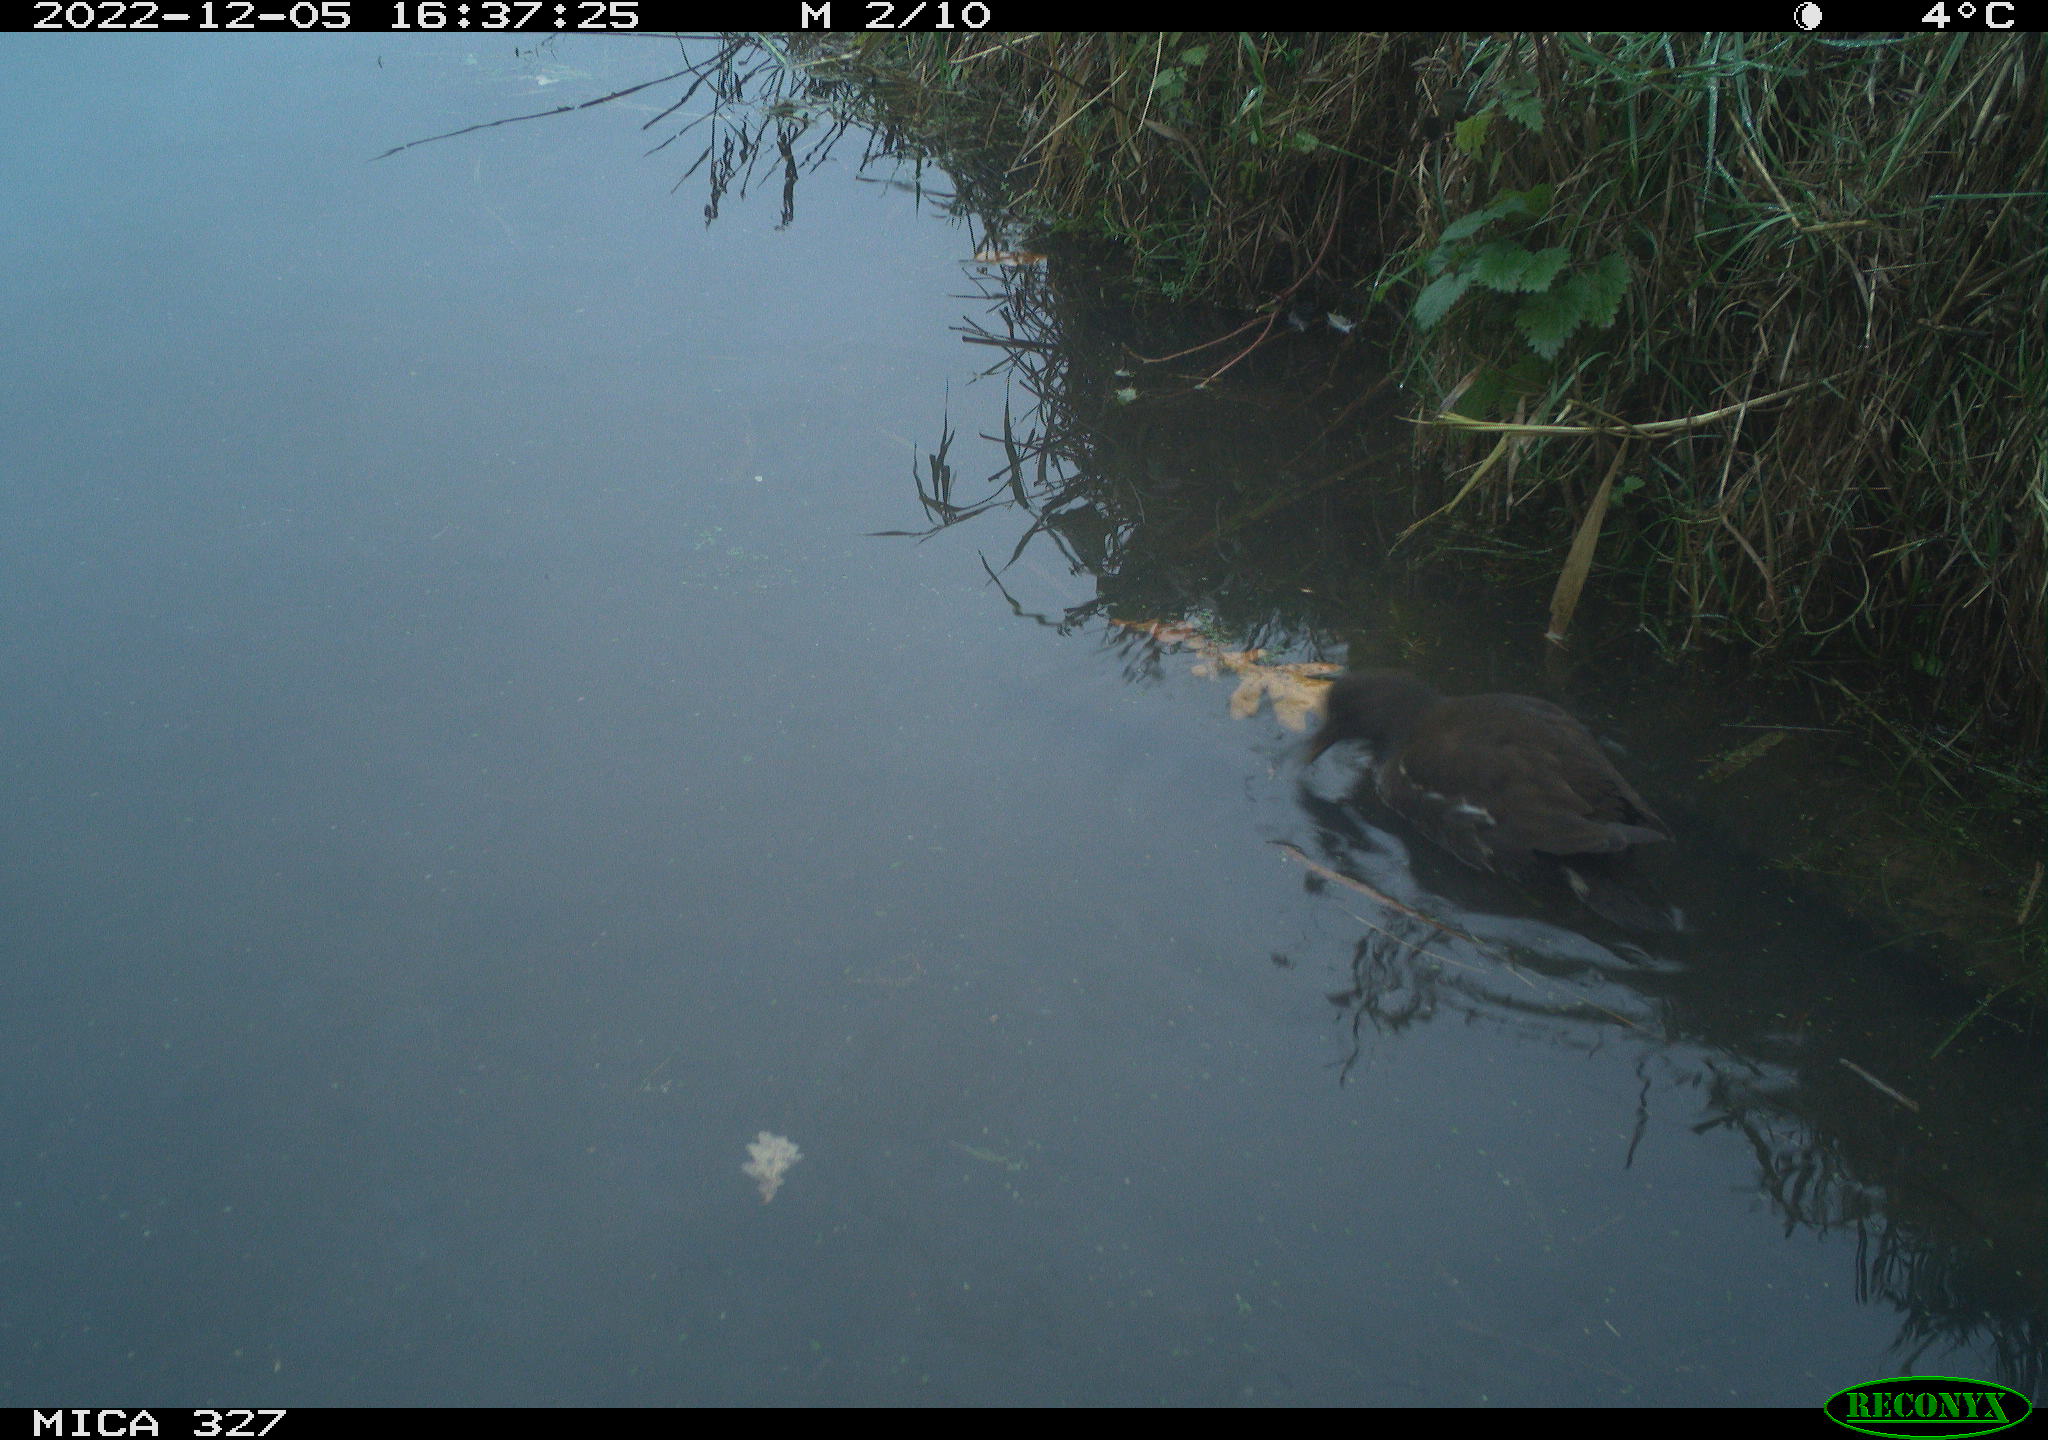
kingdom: Animalia
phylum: Chordata
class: Aves
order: Gruiformes
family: Rallidae
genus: Gallinula
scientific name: Gallinula chloropus
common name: Common moorhen
